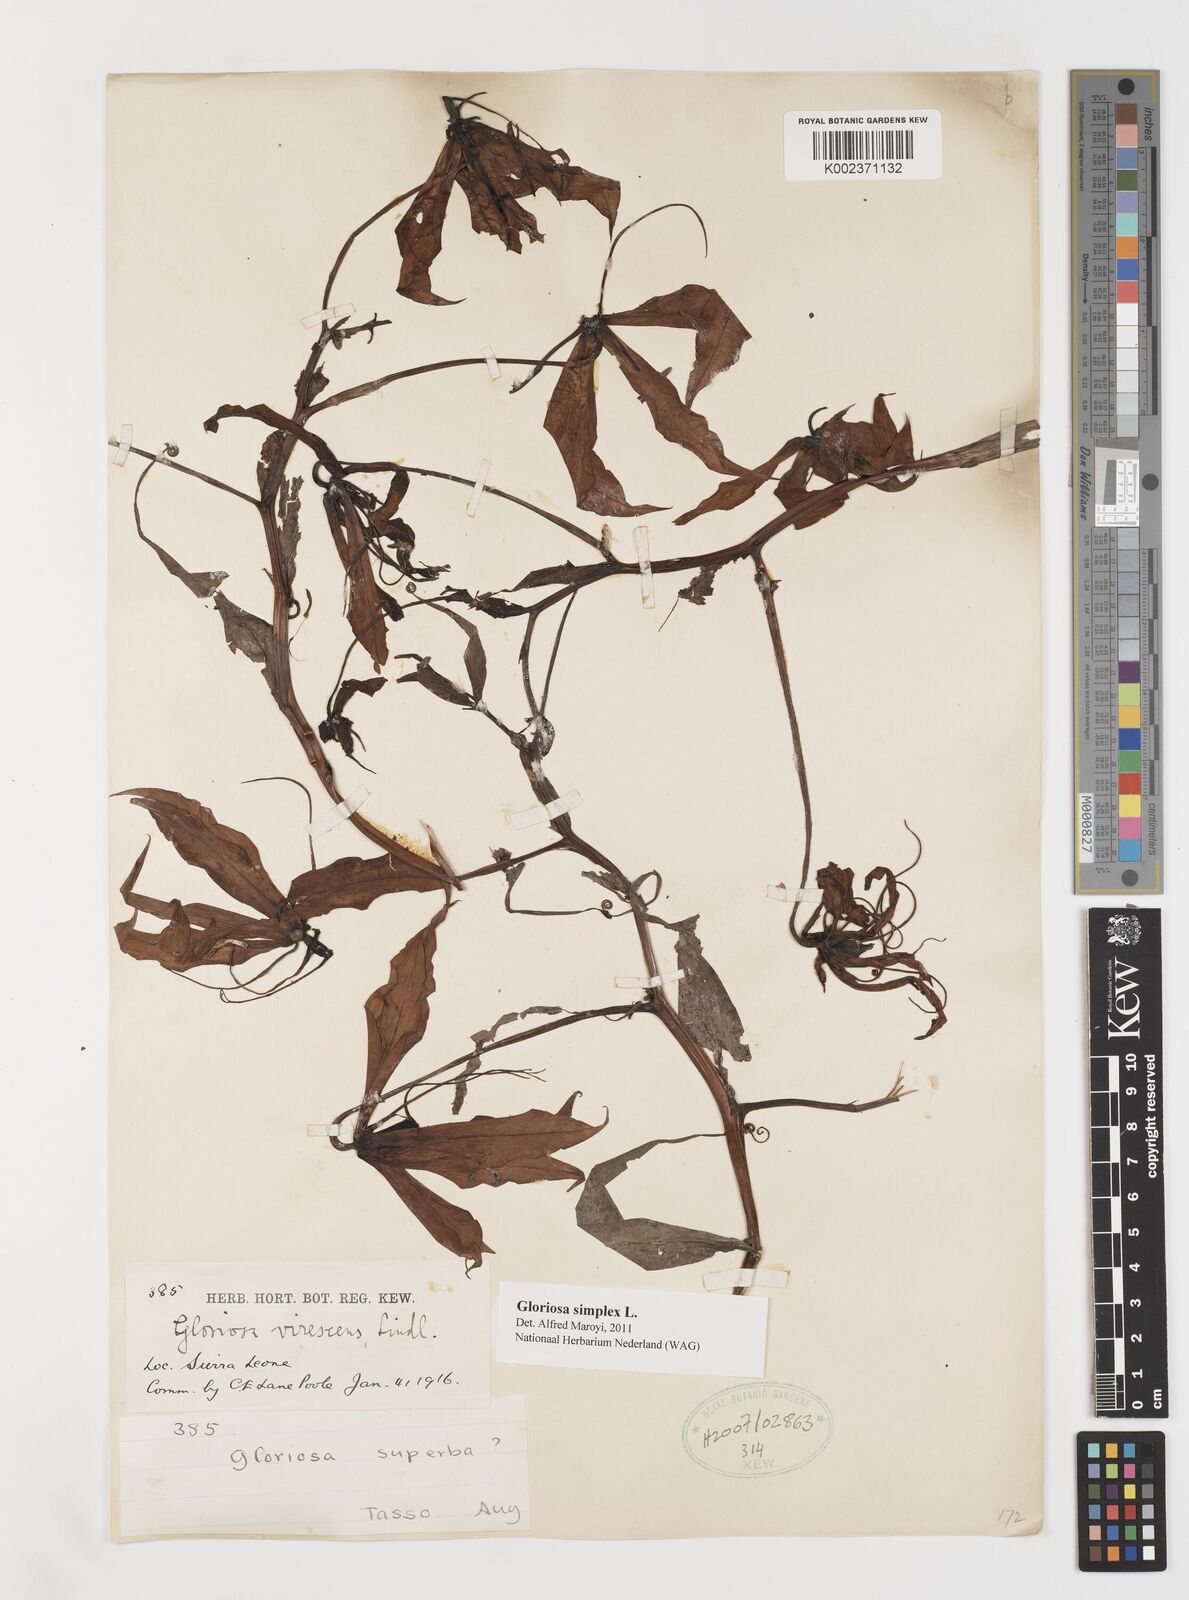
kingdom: Plantae
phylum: Tracheophyta
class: Liliopsida
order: Liliales
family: Colchicaceae
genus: Gloriosa
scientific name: Gloriosa simplex
